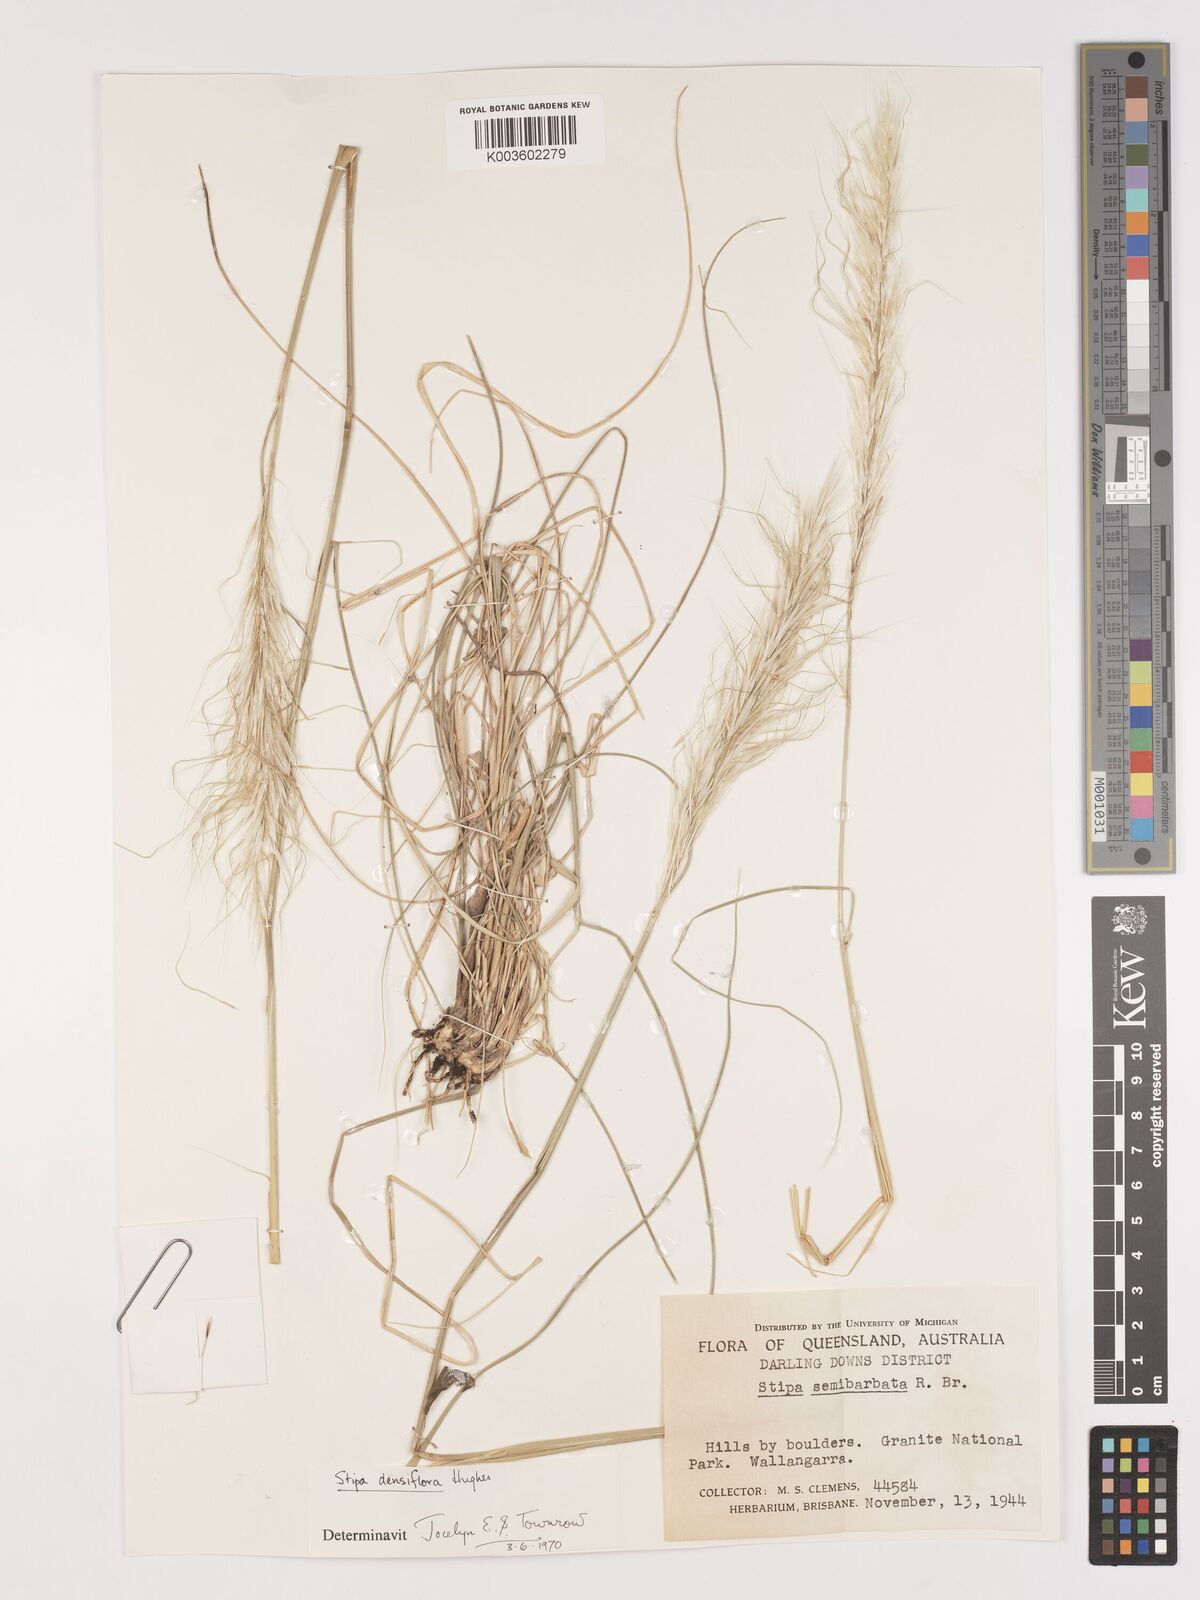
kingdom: Plantae
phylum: Tracheophyta
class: Liliopsida
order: Poales
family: Poaceae
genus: Stipa
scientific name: Stipa
